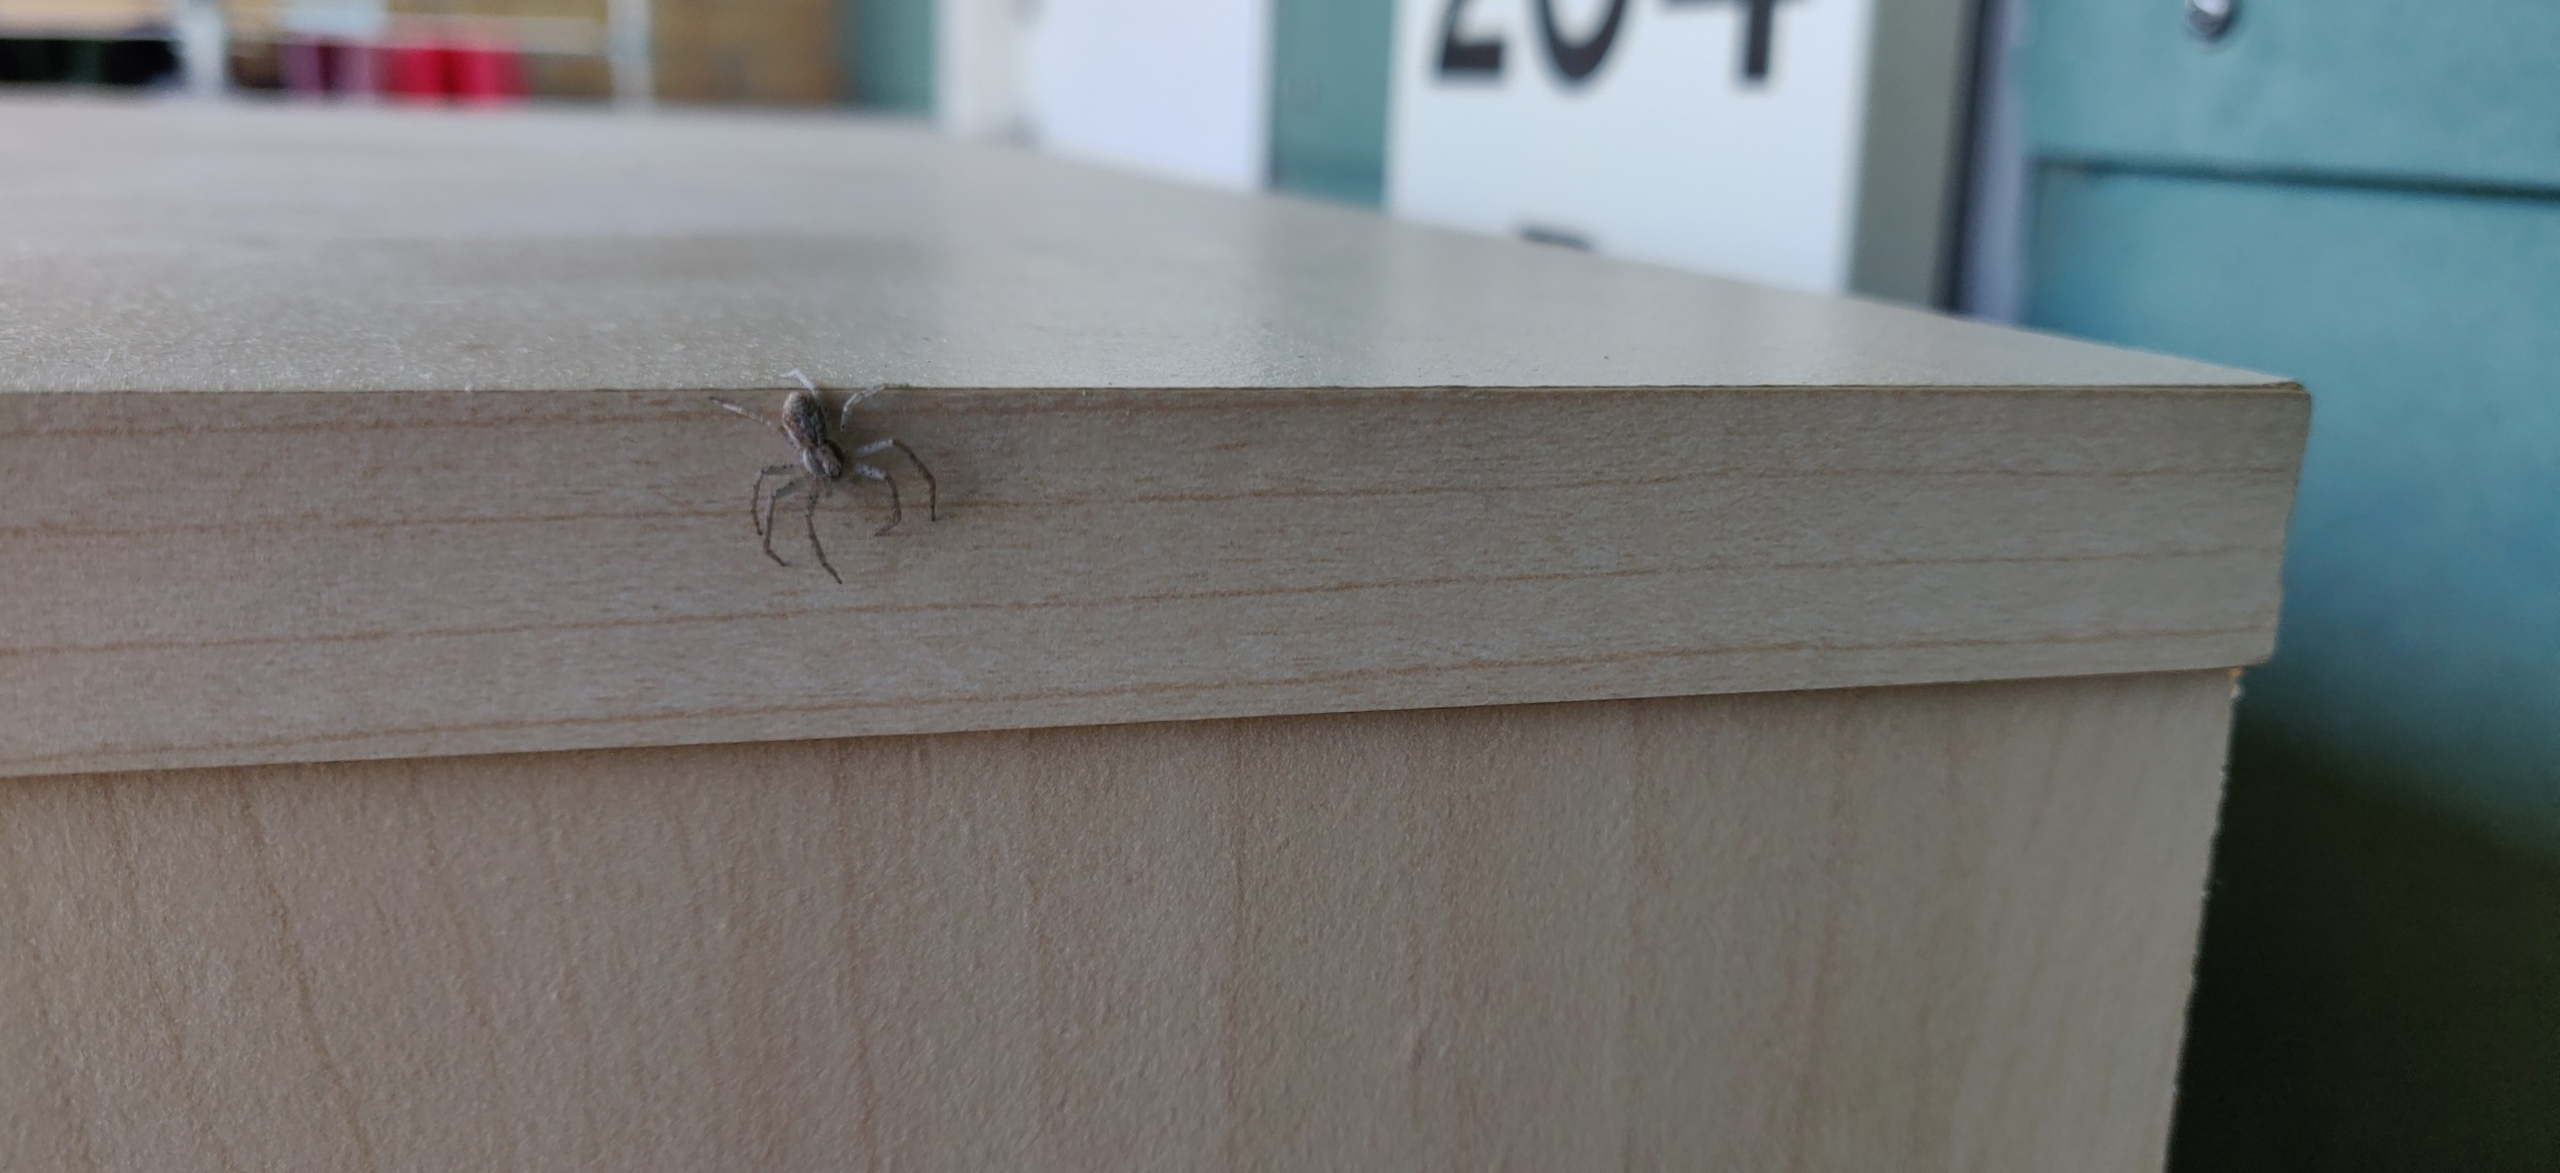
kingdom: Animalia
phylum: Arthropoda
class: Arachnida
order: Araneae
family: Philodromidae
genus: Philodromus
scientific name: Philodromus dispar
